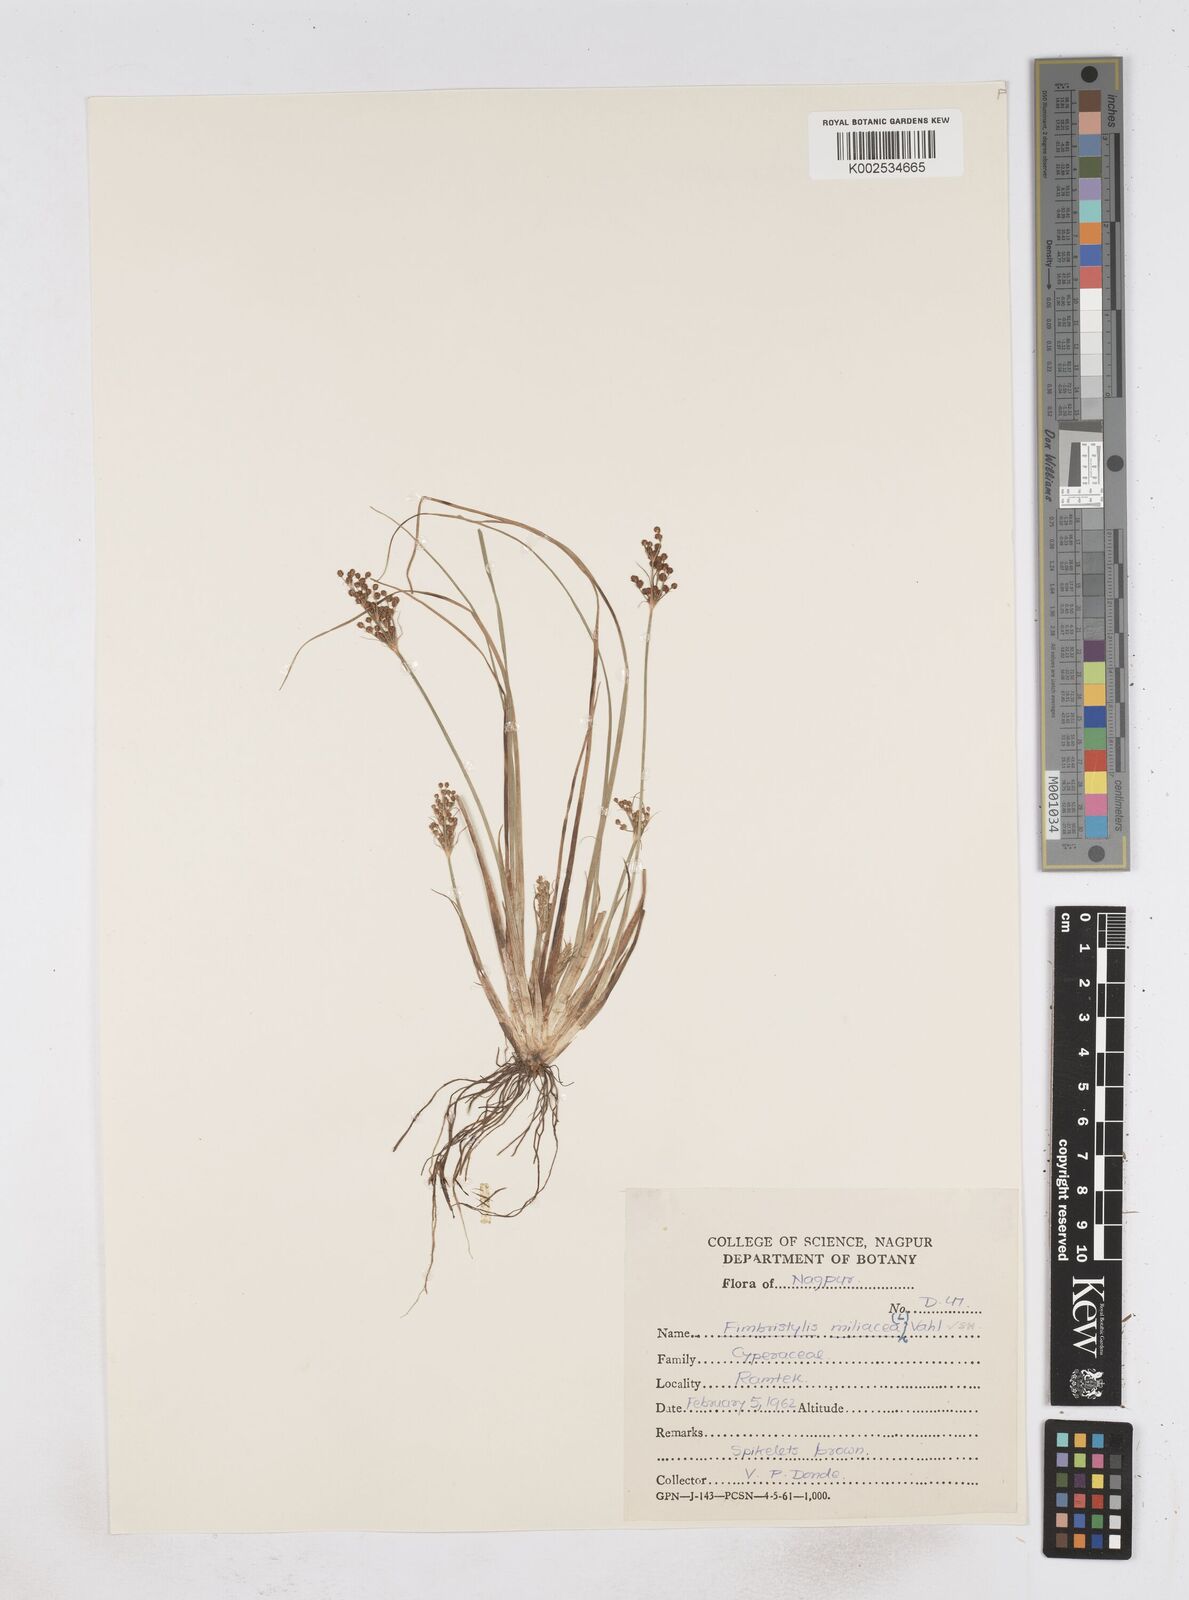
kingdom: Plantae
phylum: Tracheophyta
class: Liliopsida
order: Poales
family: Cyperaceae
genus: Fimbristylis
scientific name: Fimbristylis littoralis
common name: Fimbry
